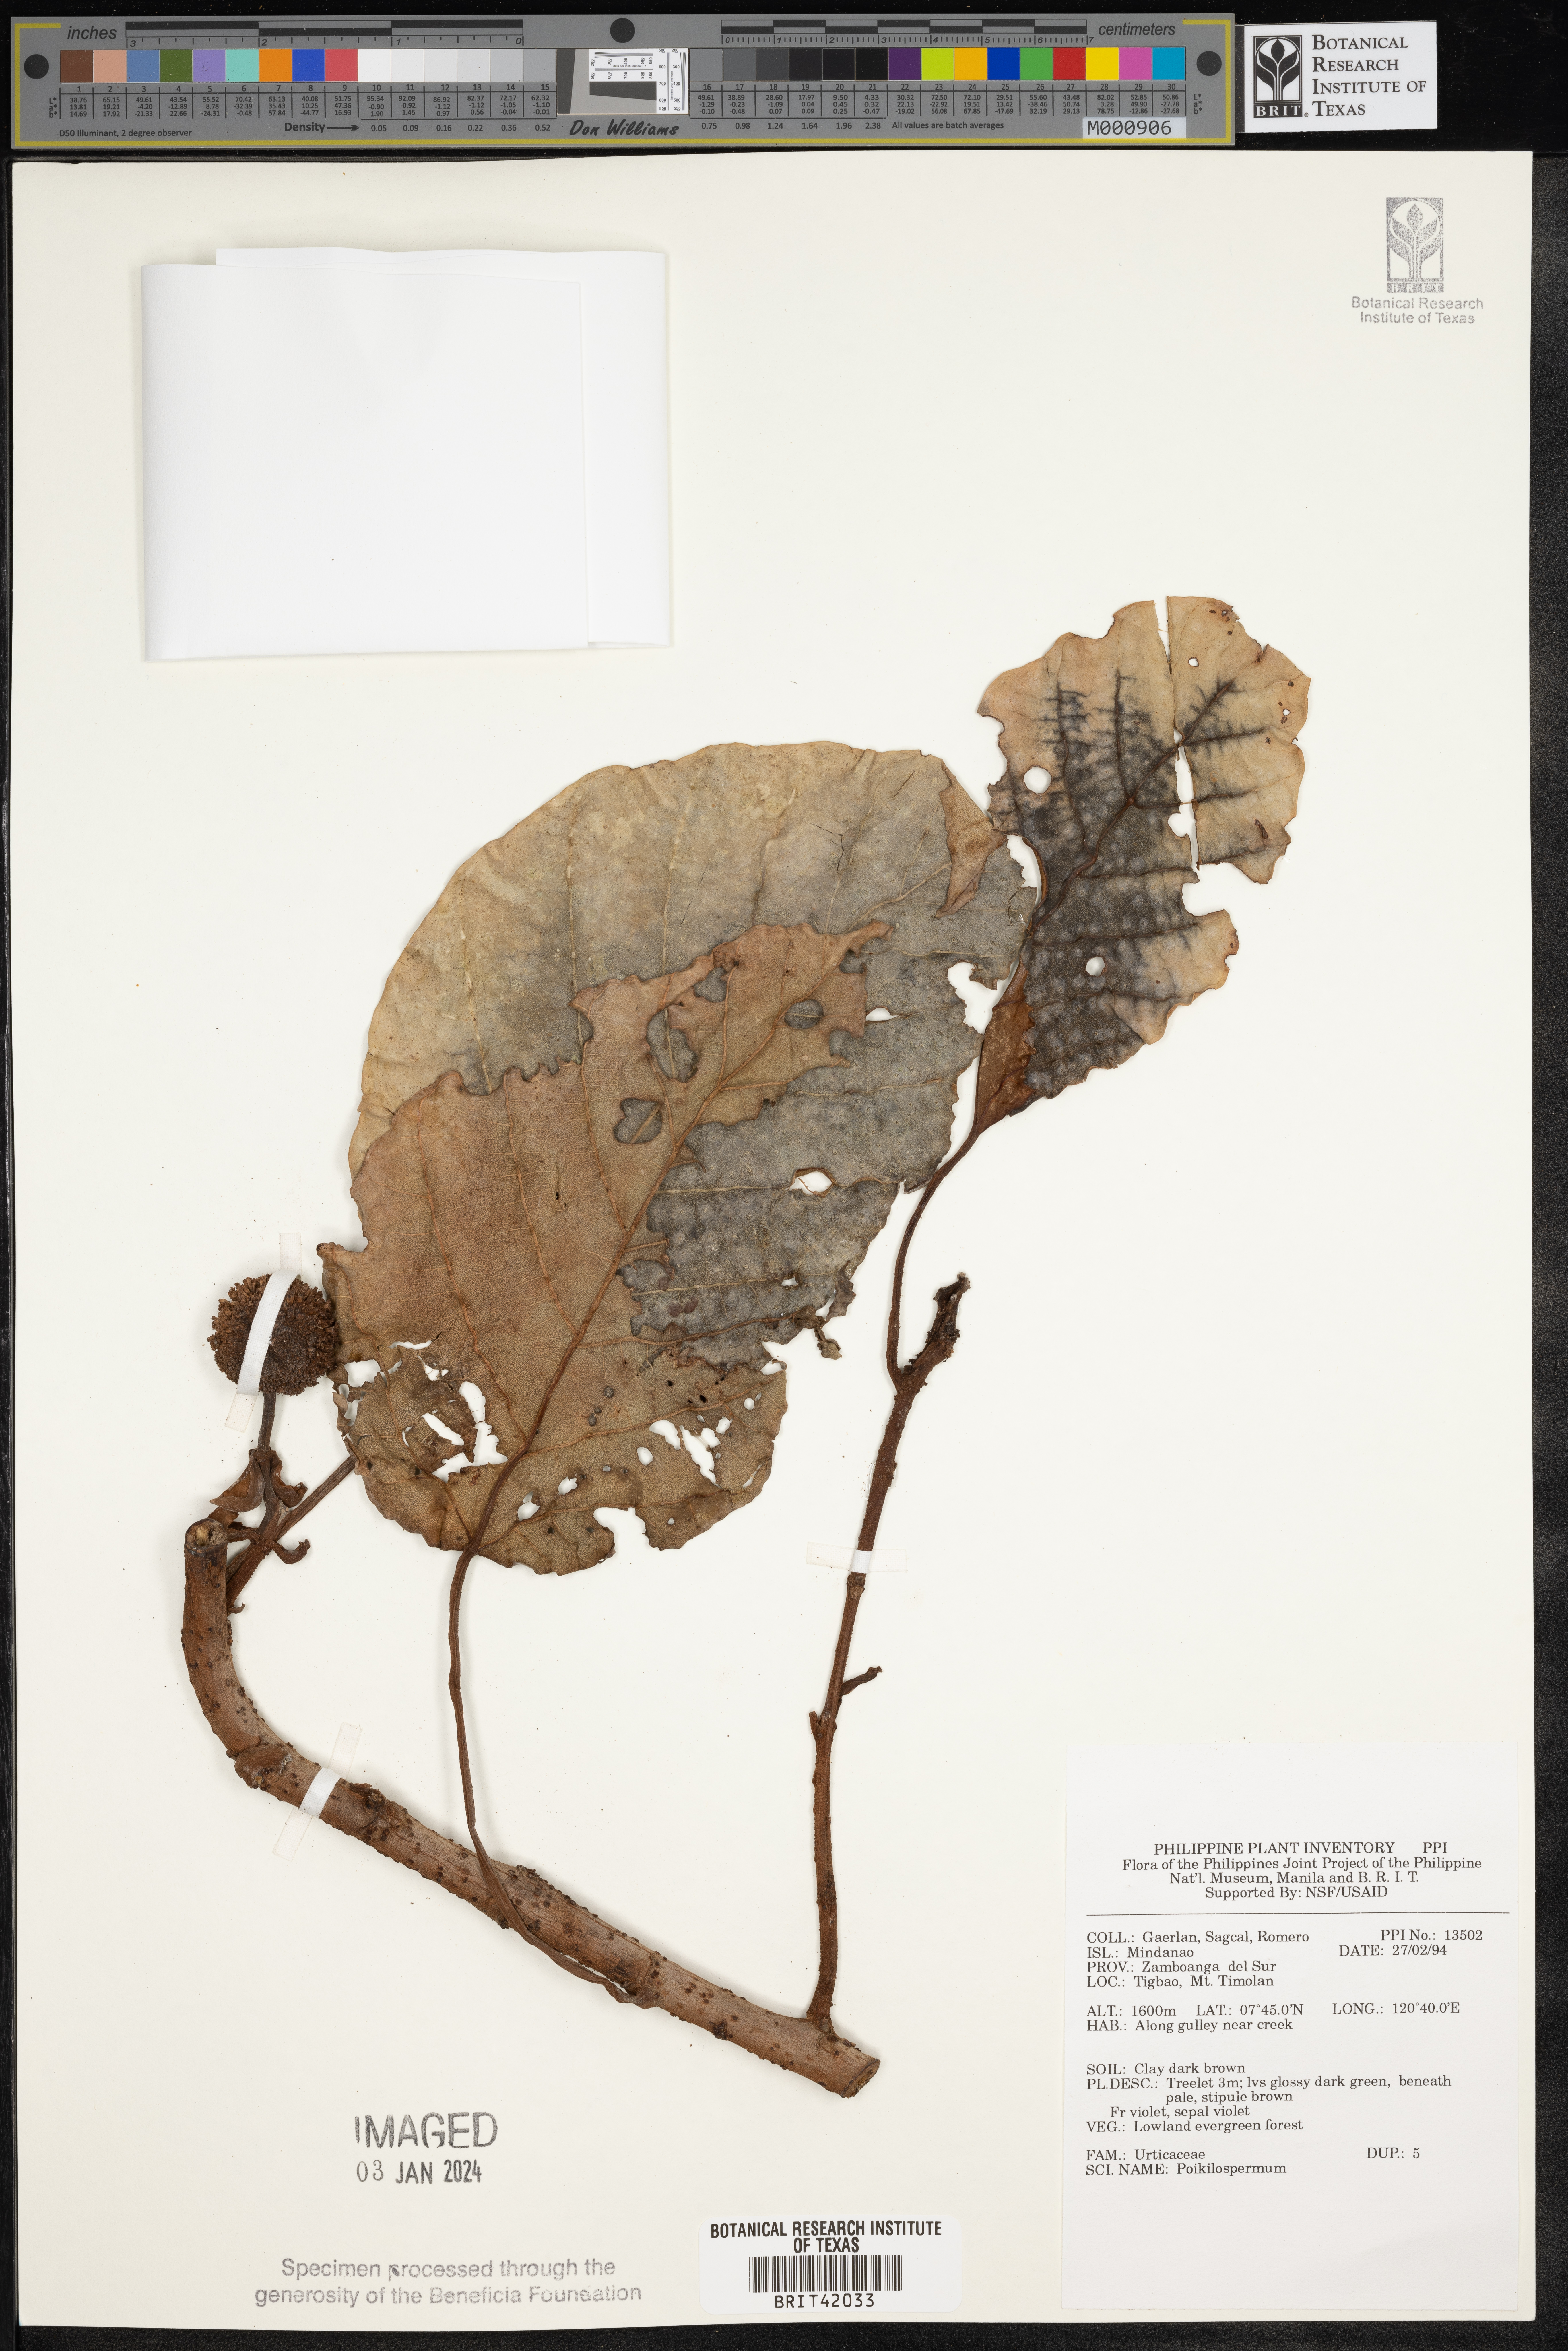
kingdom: Plantae
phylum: Tracheophyta
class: Magnoliopsida
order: Rosales
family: Urticaceae
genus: Poikilospermum
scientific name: Poikilospermum
